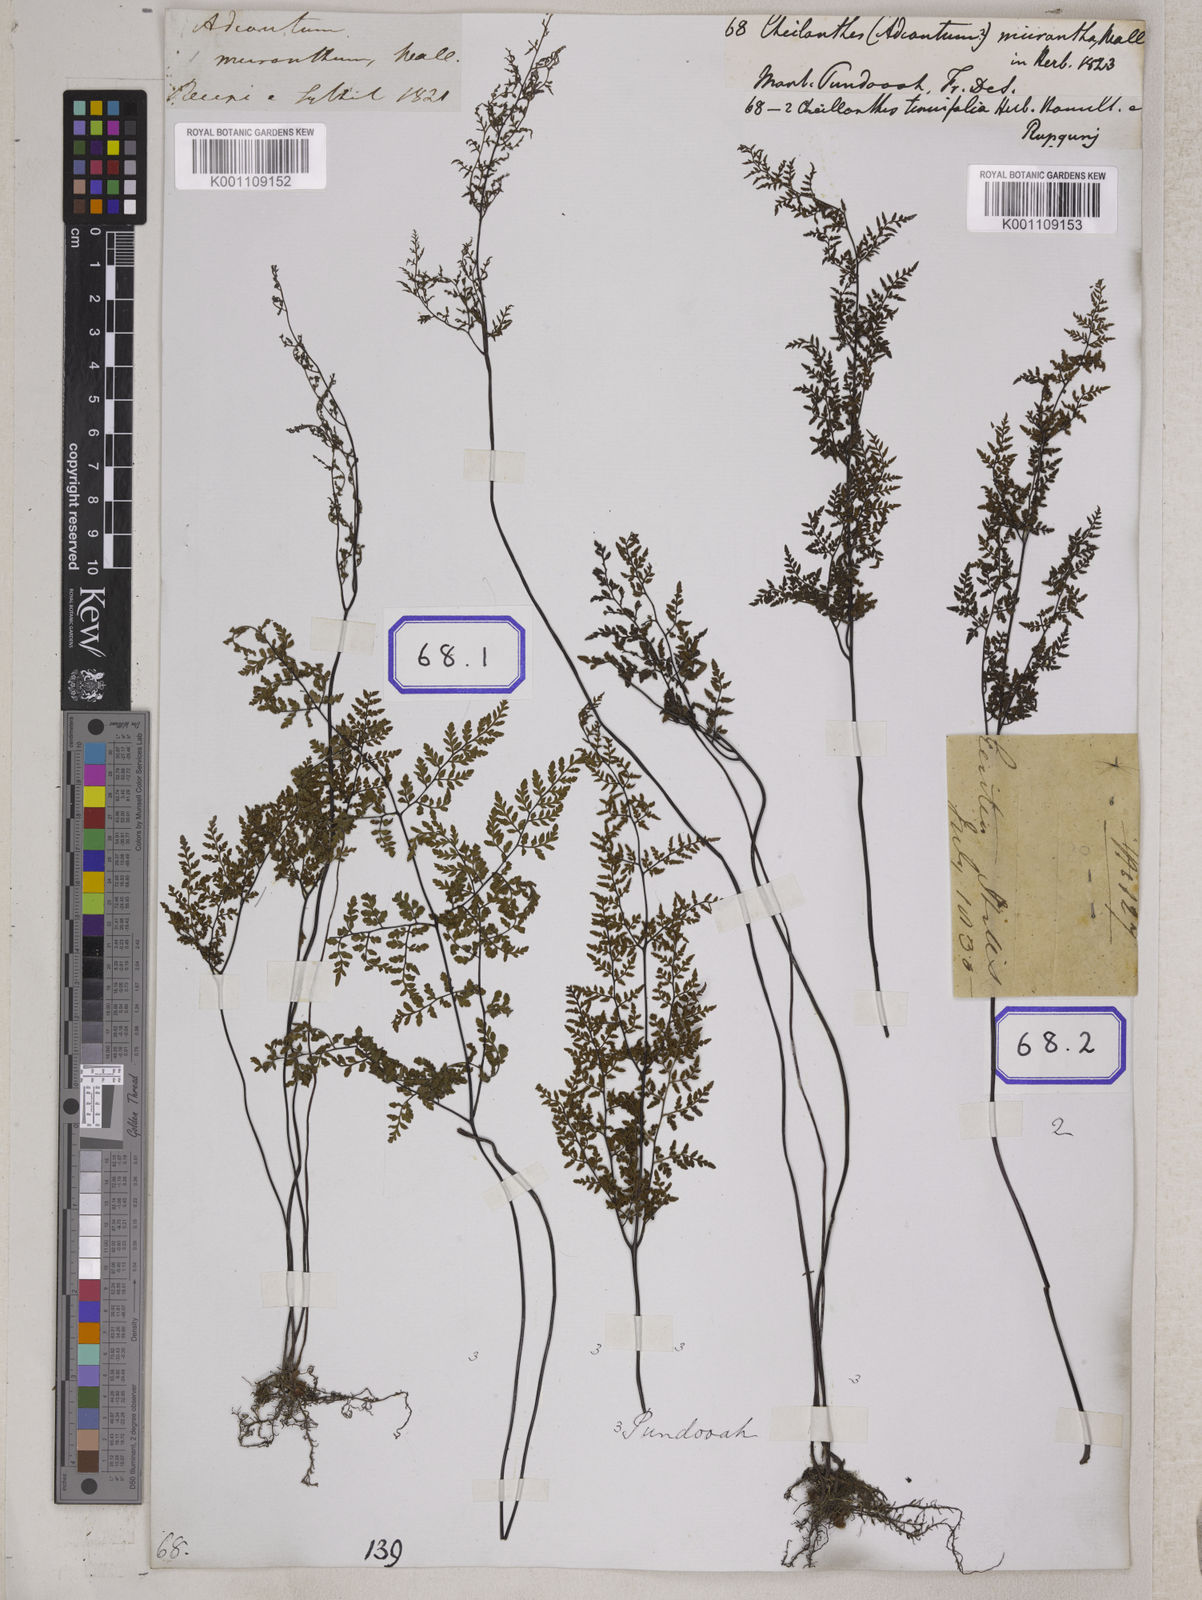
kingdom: Plantae
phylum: Tracheophyta
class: Polypodiopsida
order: Polypodiales
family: Pteridaceae
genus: Cheilanthes
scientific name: Cheilanthes tenuifolia
